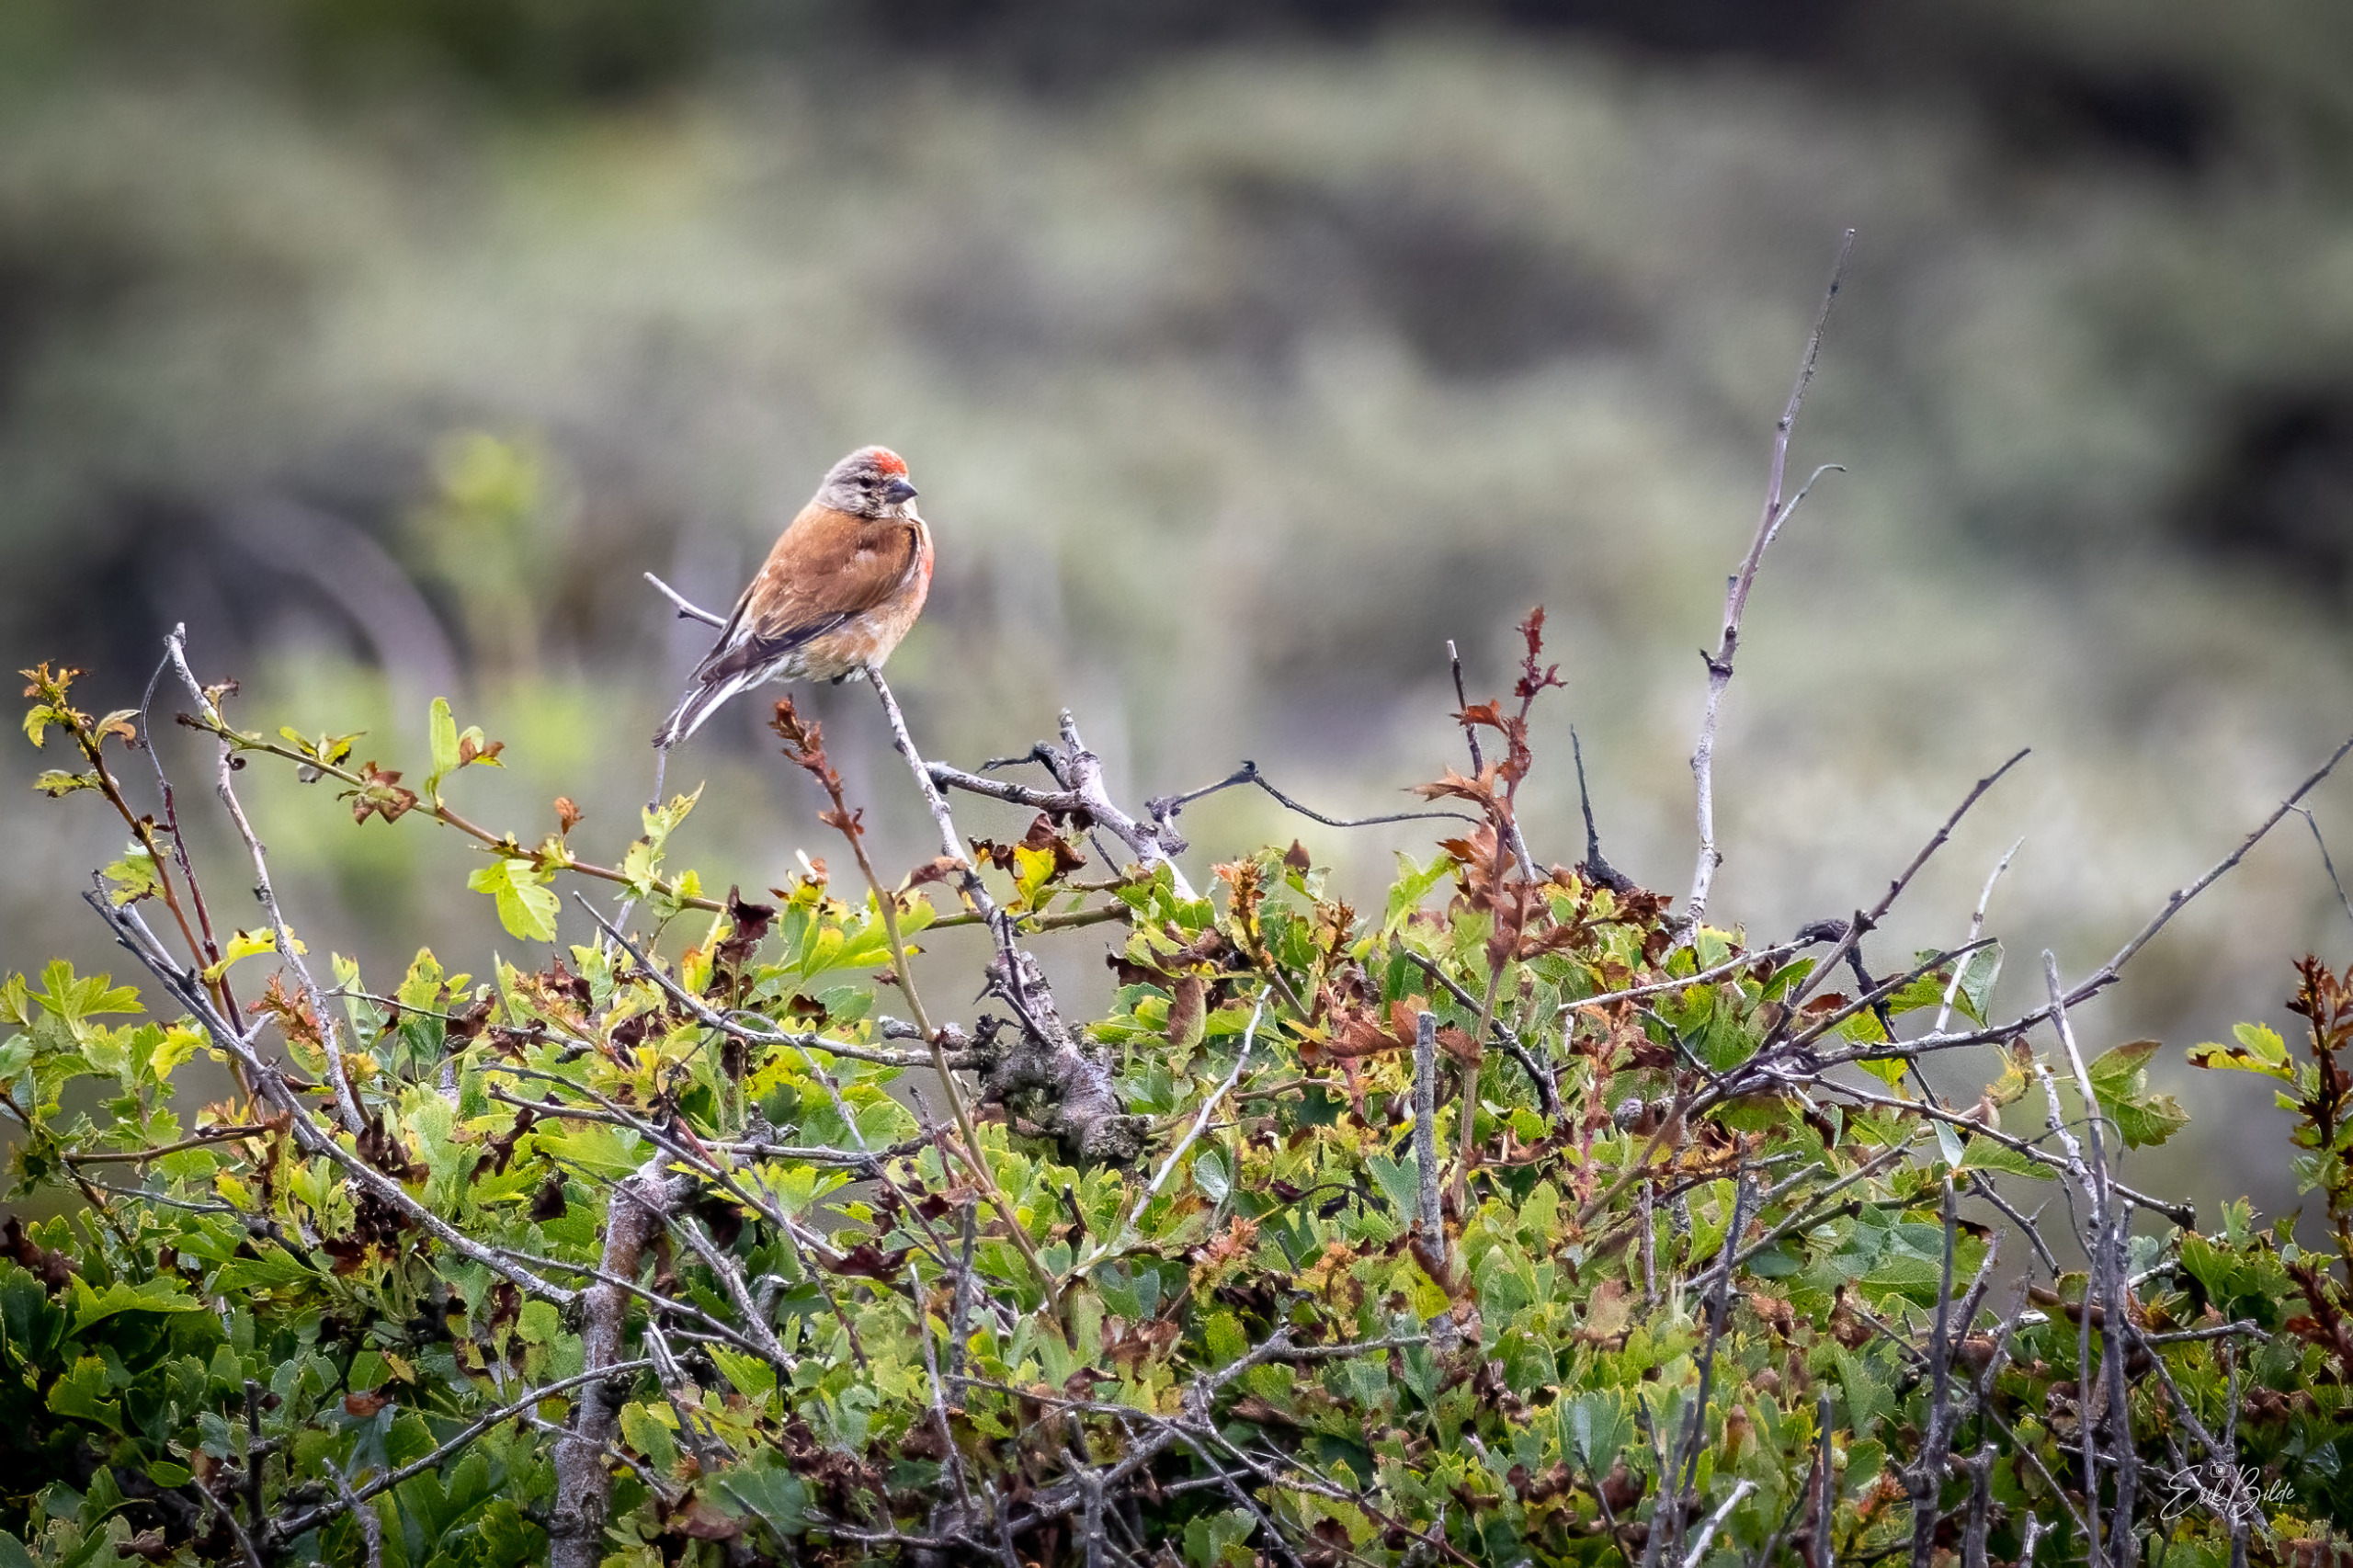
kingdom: Animalia
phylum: Chordata
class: Aves
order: Passeriformes
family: Fringillidae
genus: Linaria
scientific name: Linaria cannabina
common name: Tornirisk
